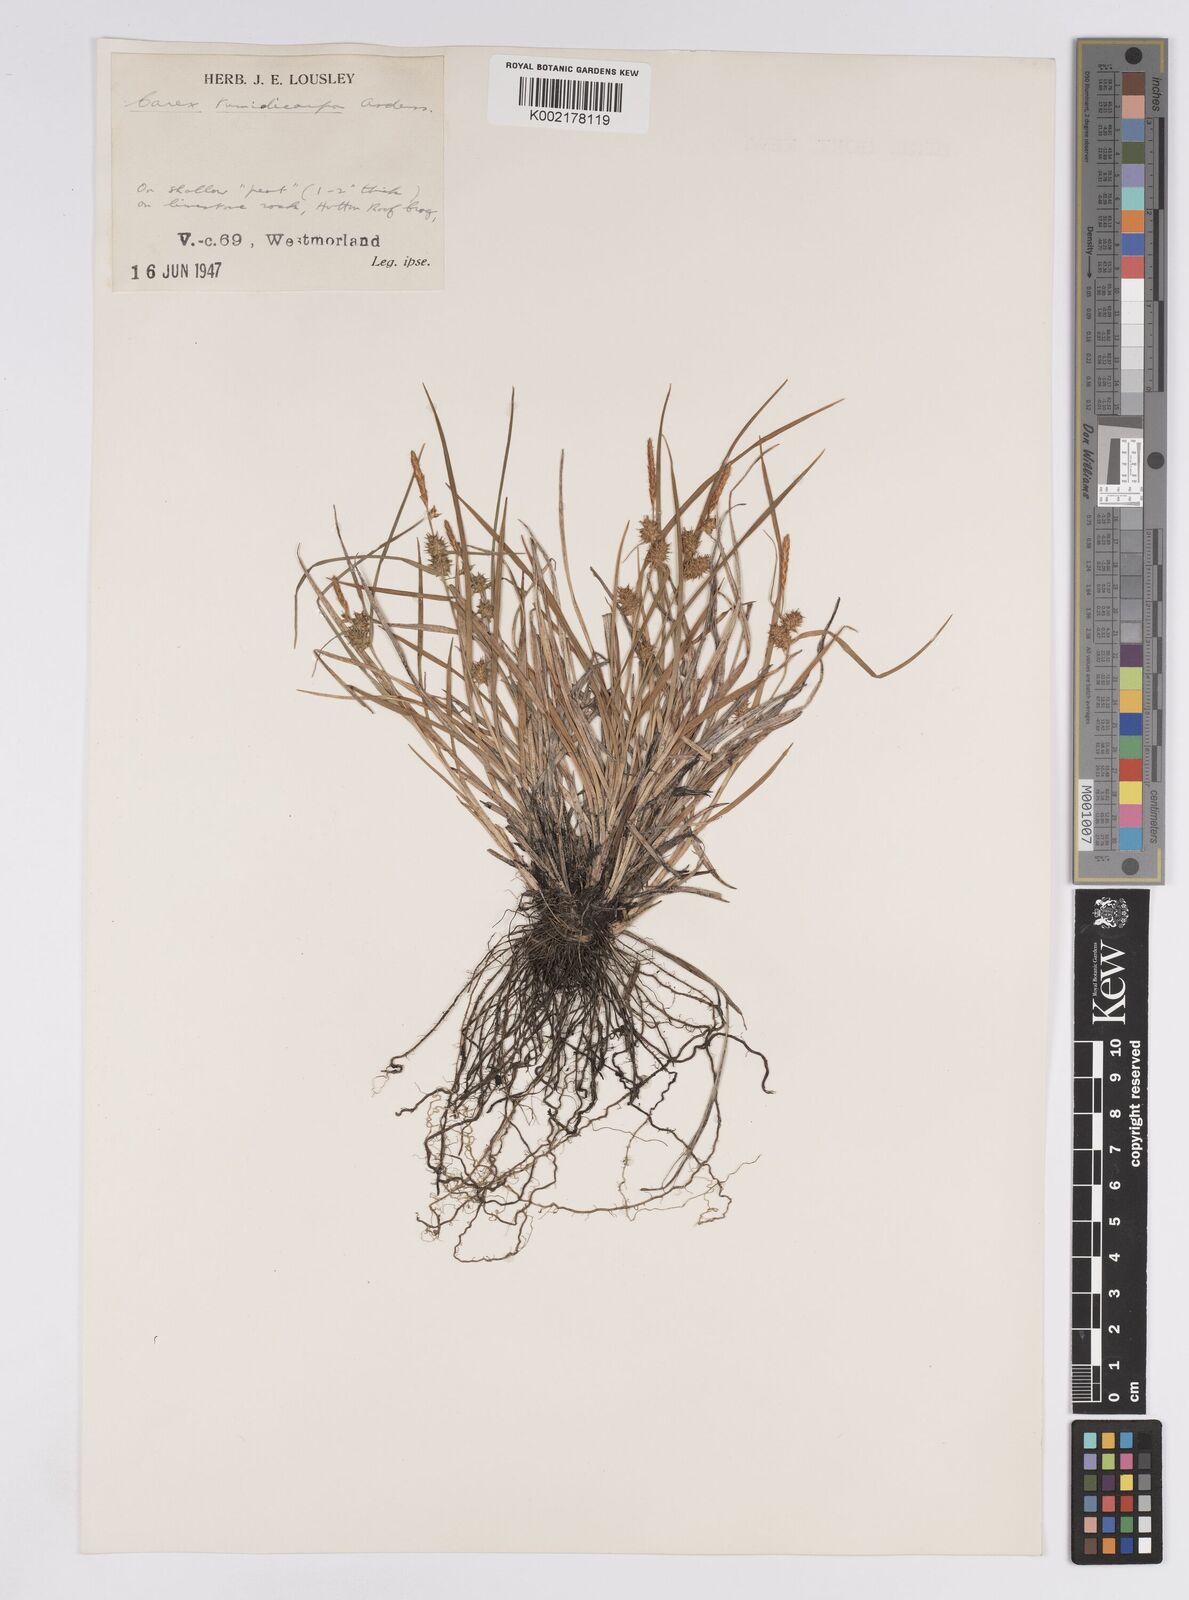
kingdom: Plantae
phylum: Tracheophyta
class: Liliopsida
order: Poales
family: Cyperaceae
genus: Carex
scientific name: Carex demissa
